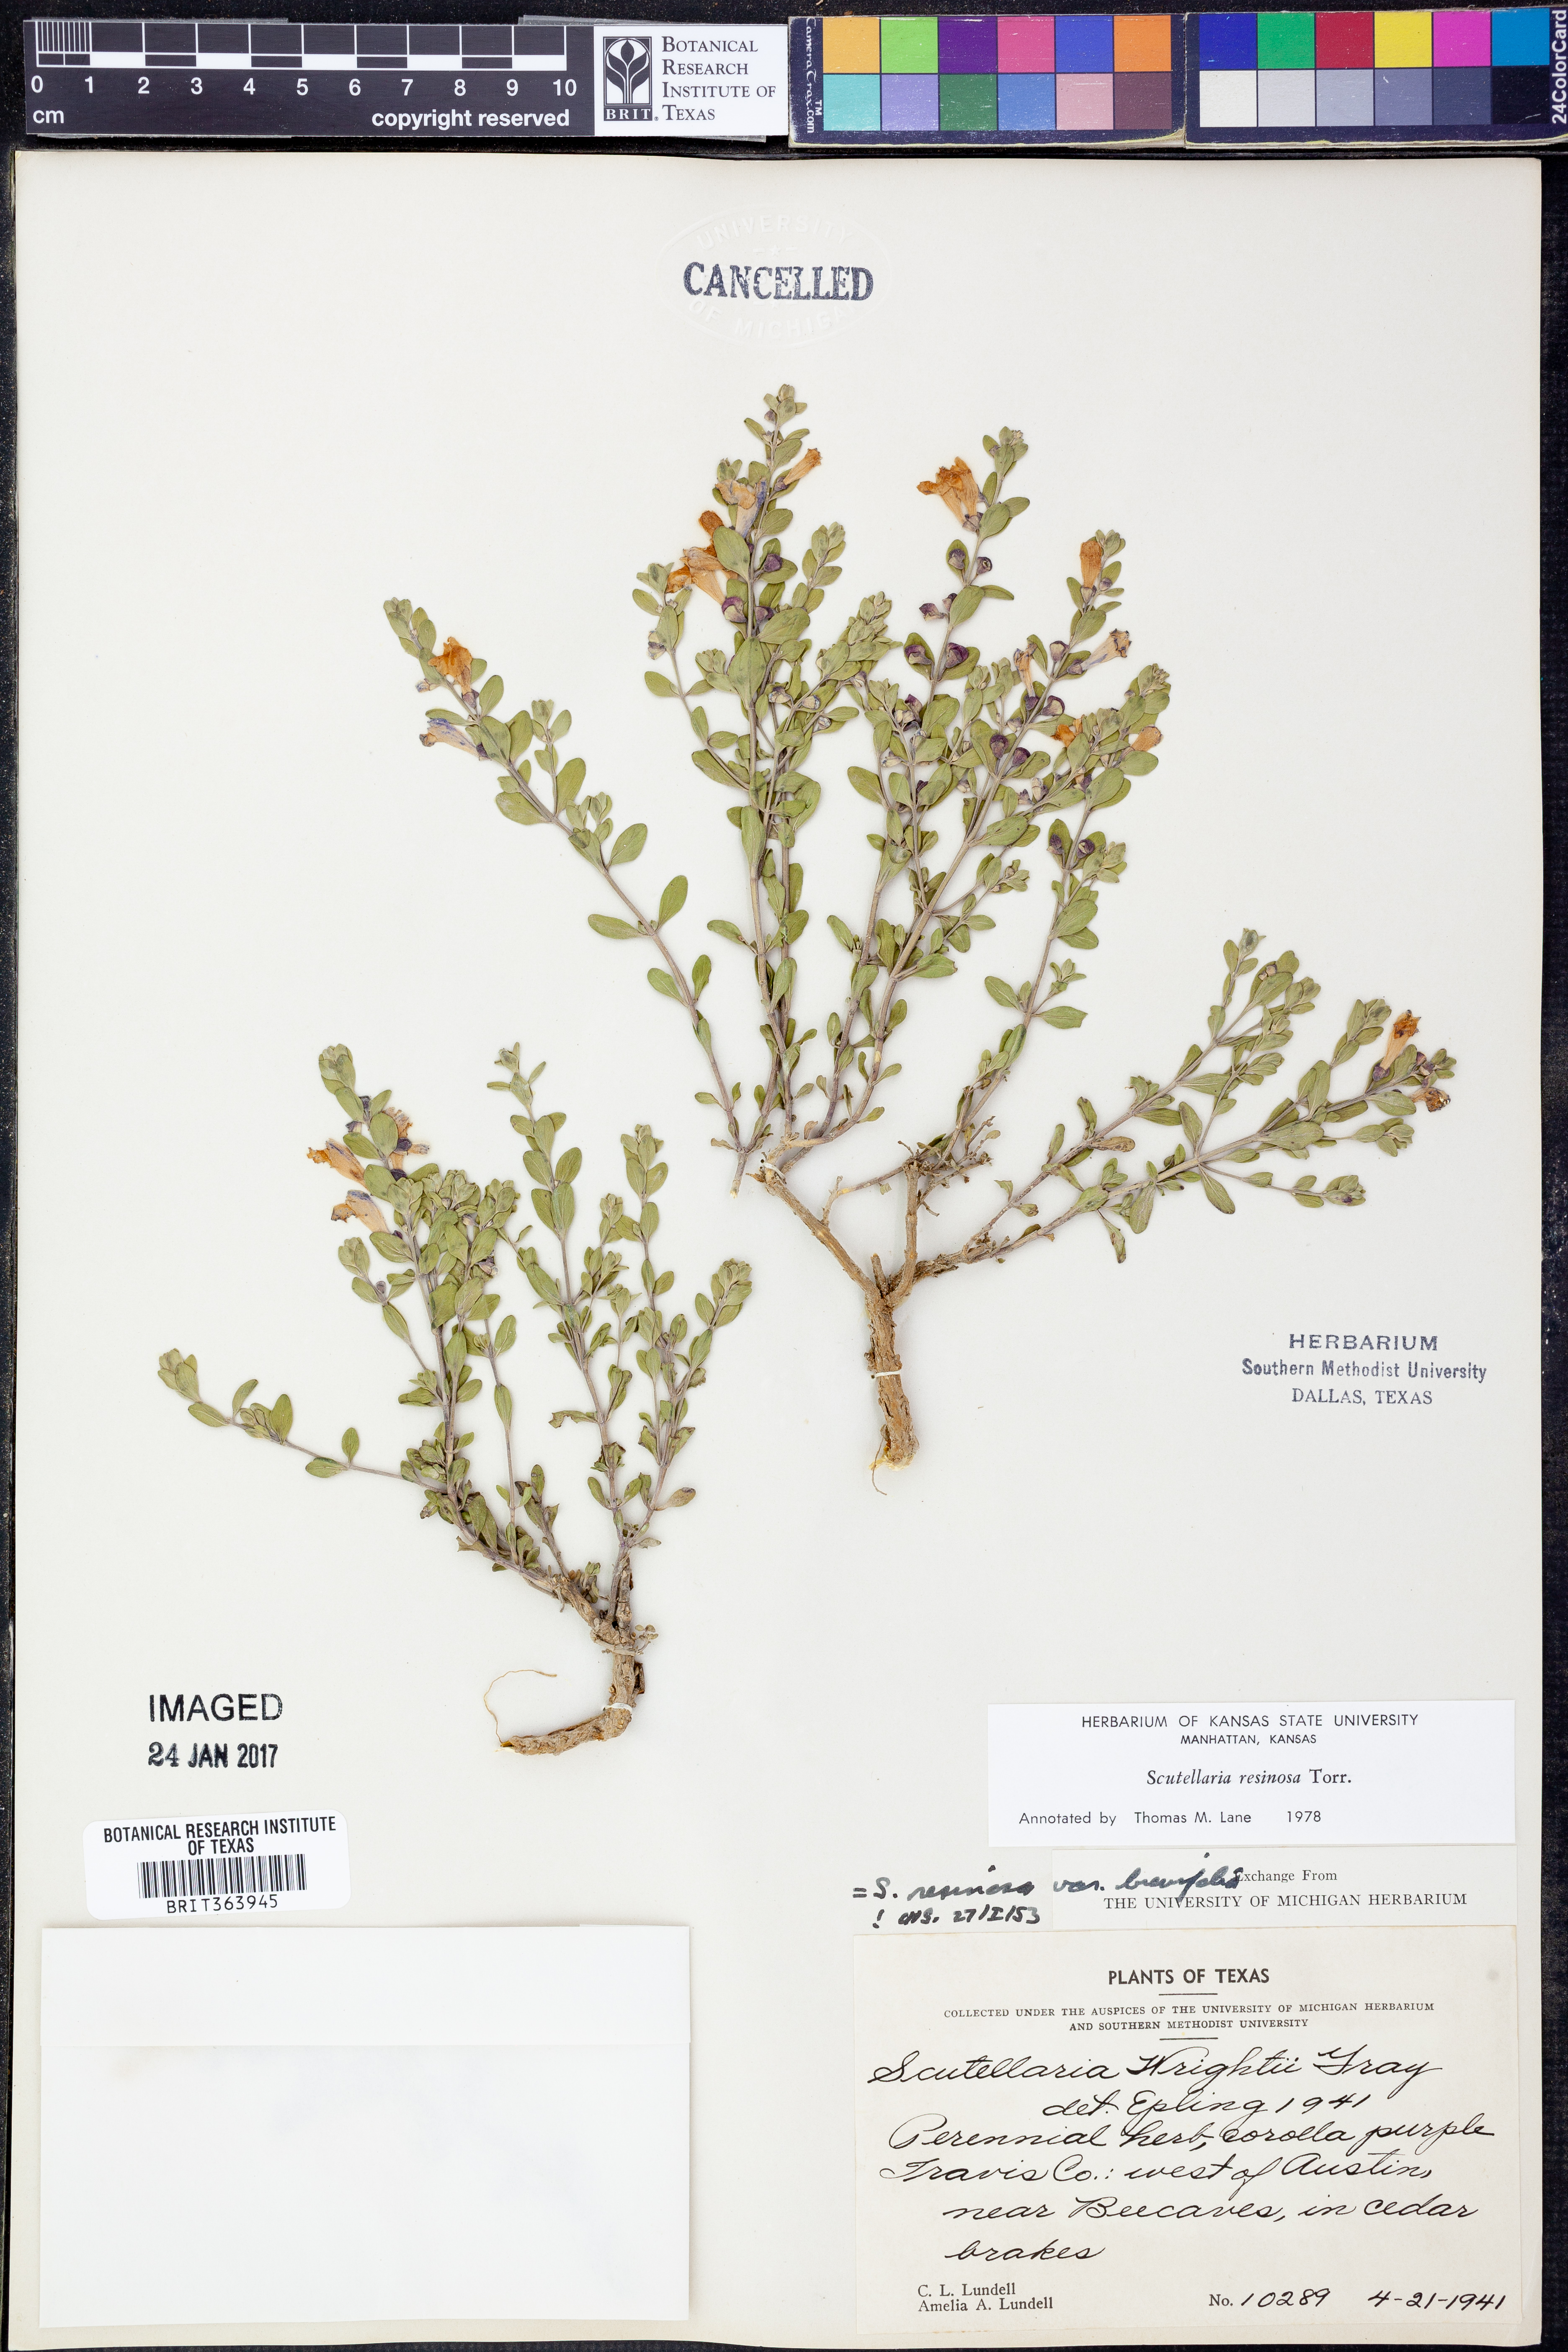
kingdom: Plantae
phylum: Tracheophyta
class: Magnoliopsida
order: Lamiales
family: Lamiaceae
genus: Scutellaria
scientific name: Scutellaria resinosa
